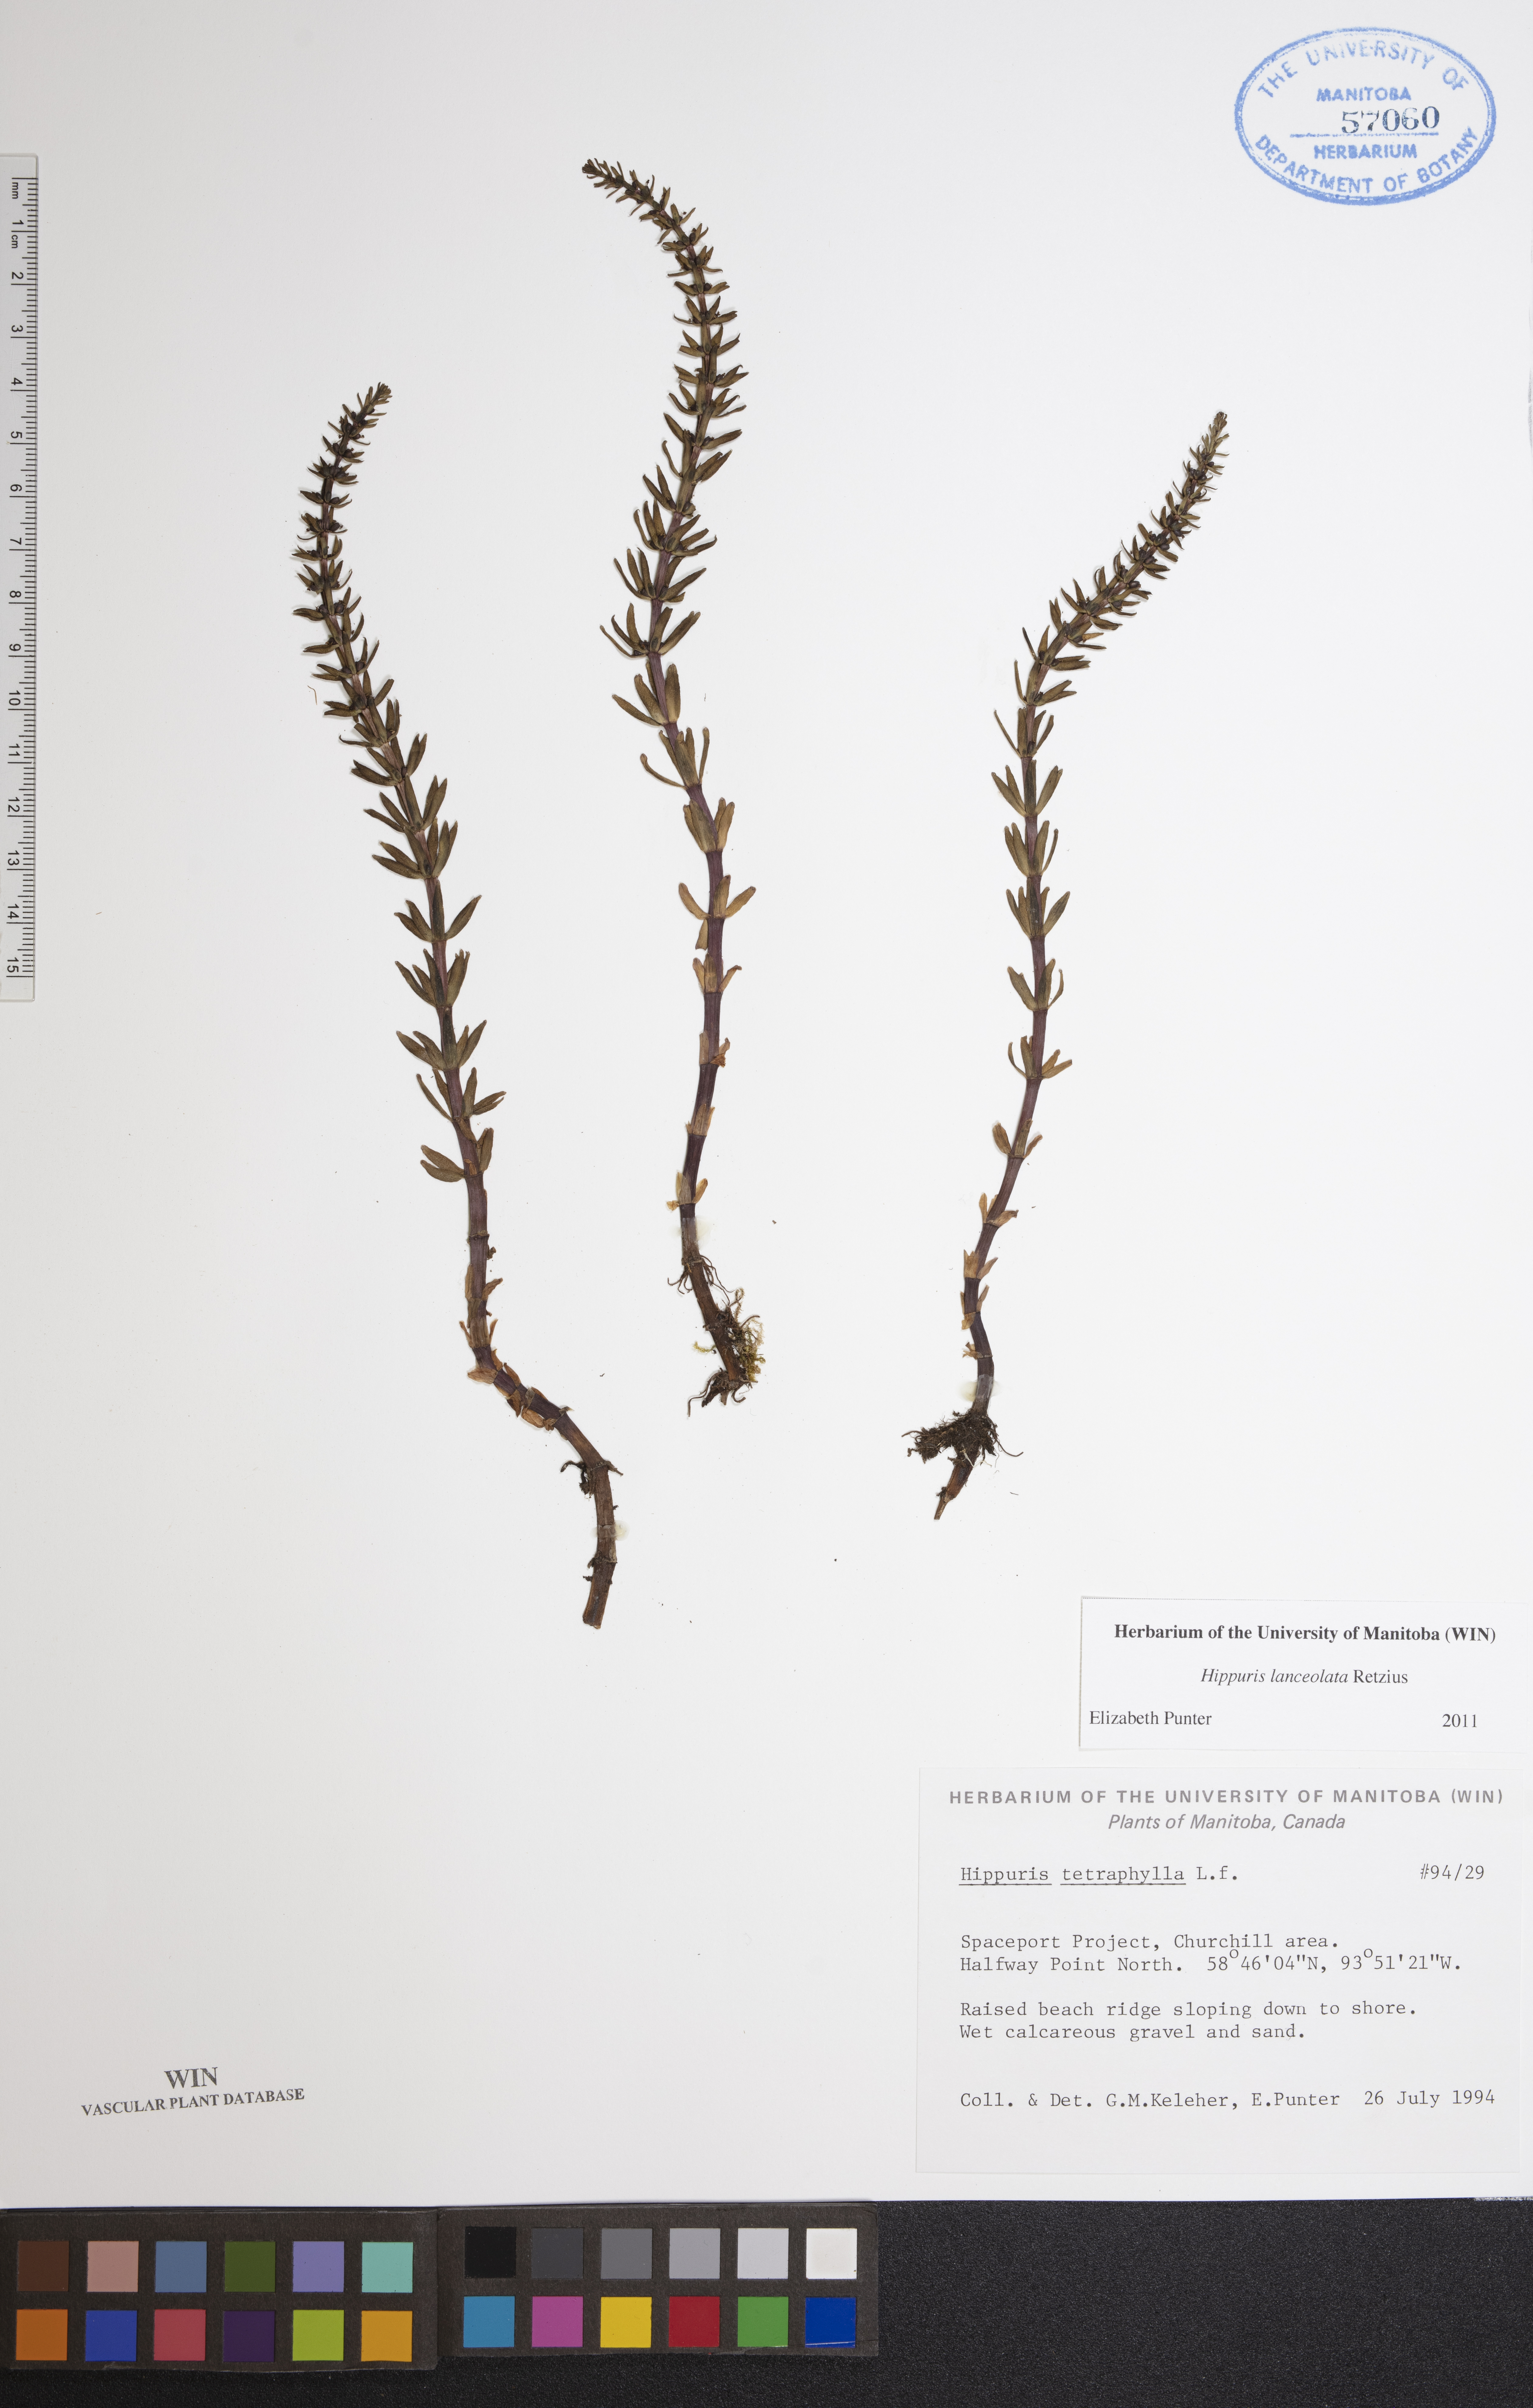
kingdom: Plantae
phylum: Tracheophyta
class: Magnoliopsida
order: Lamiales
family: Plantaginaceae
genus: Hippuris
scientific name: Hippuris lanceolata
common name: Lance-leaved mare's-tail
